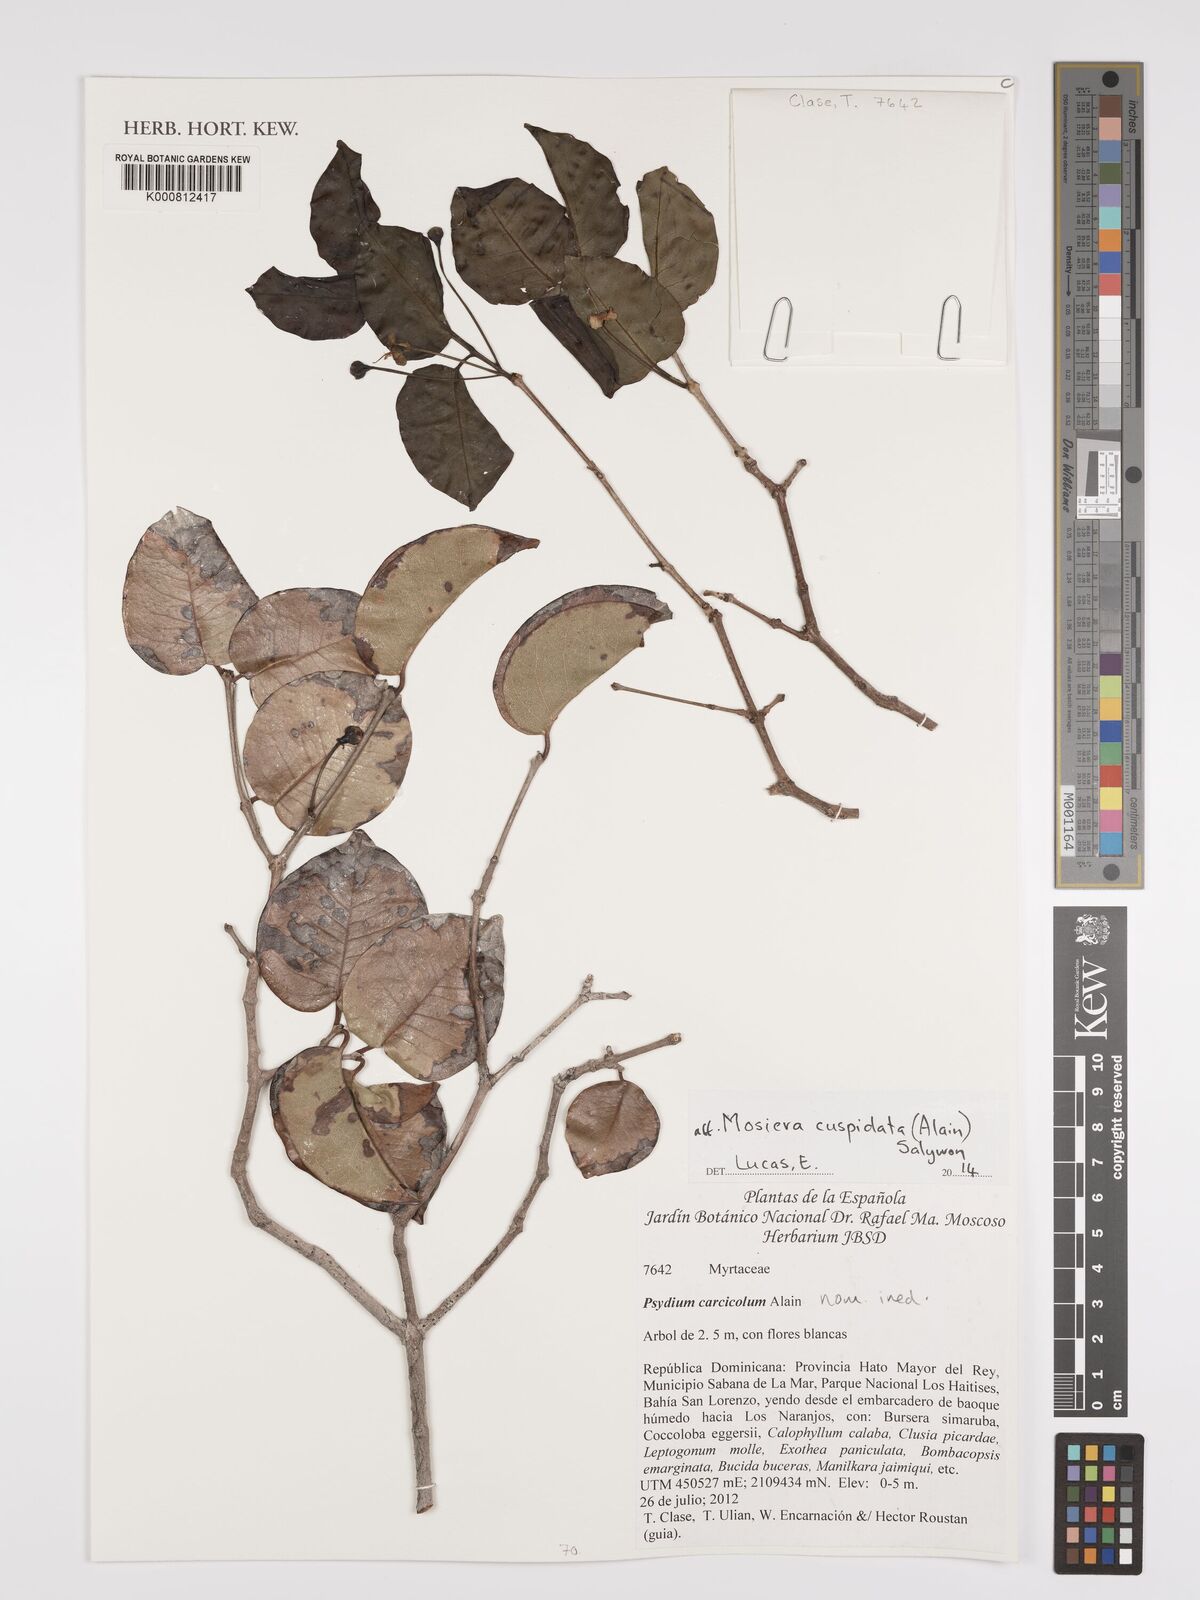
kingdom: Plantae
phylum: Tracheophyta
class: Magnoliopsida
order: Myrtales
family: Myrtaceae
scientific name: Myrtaceae
